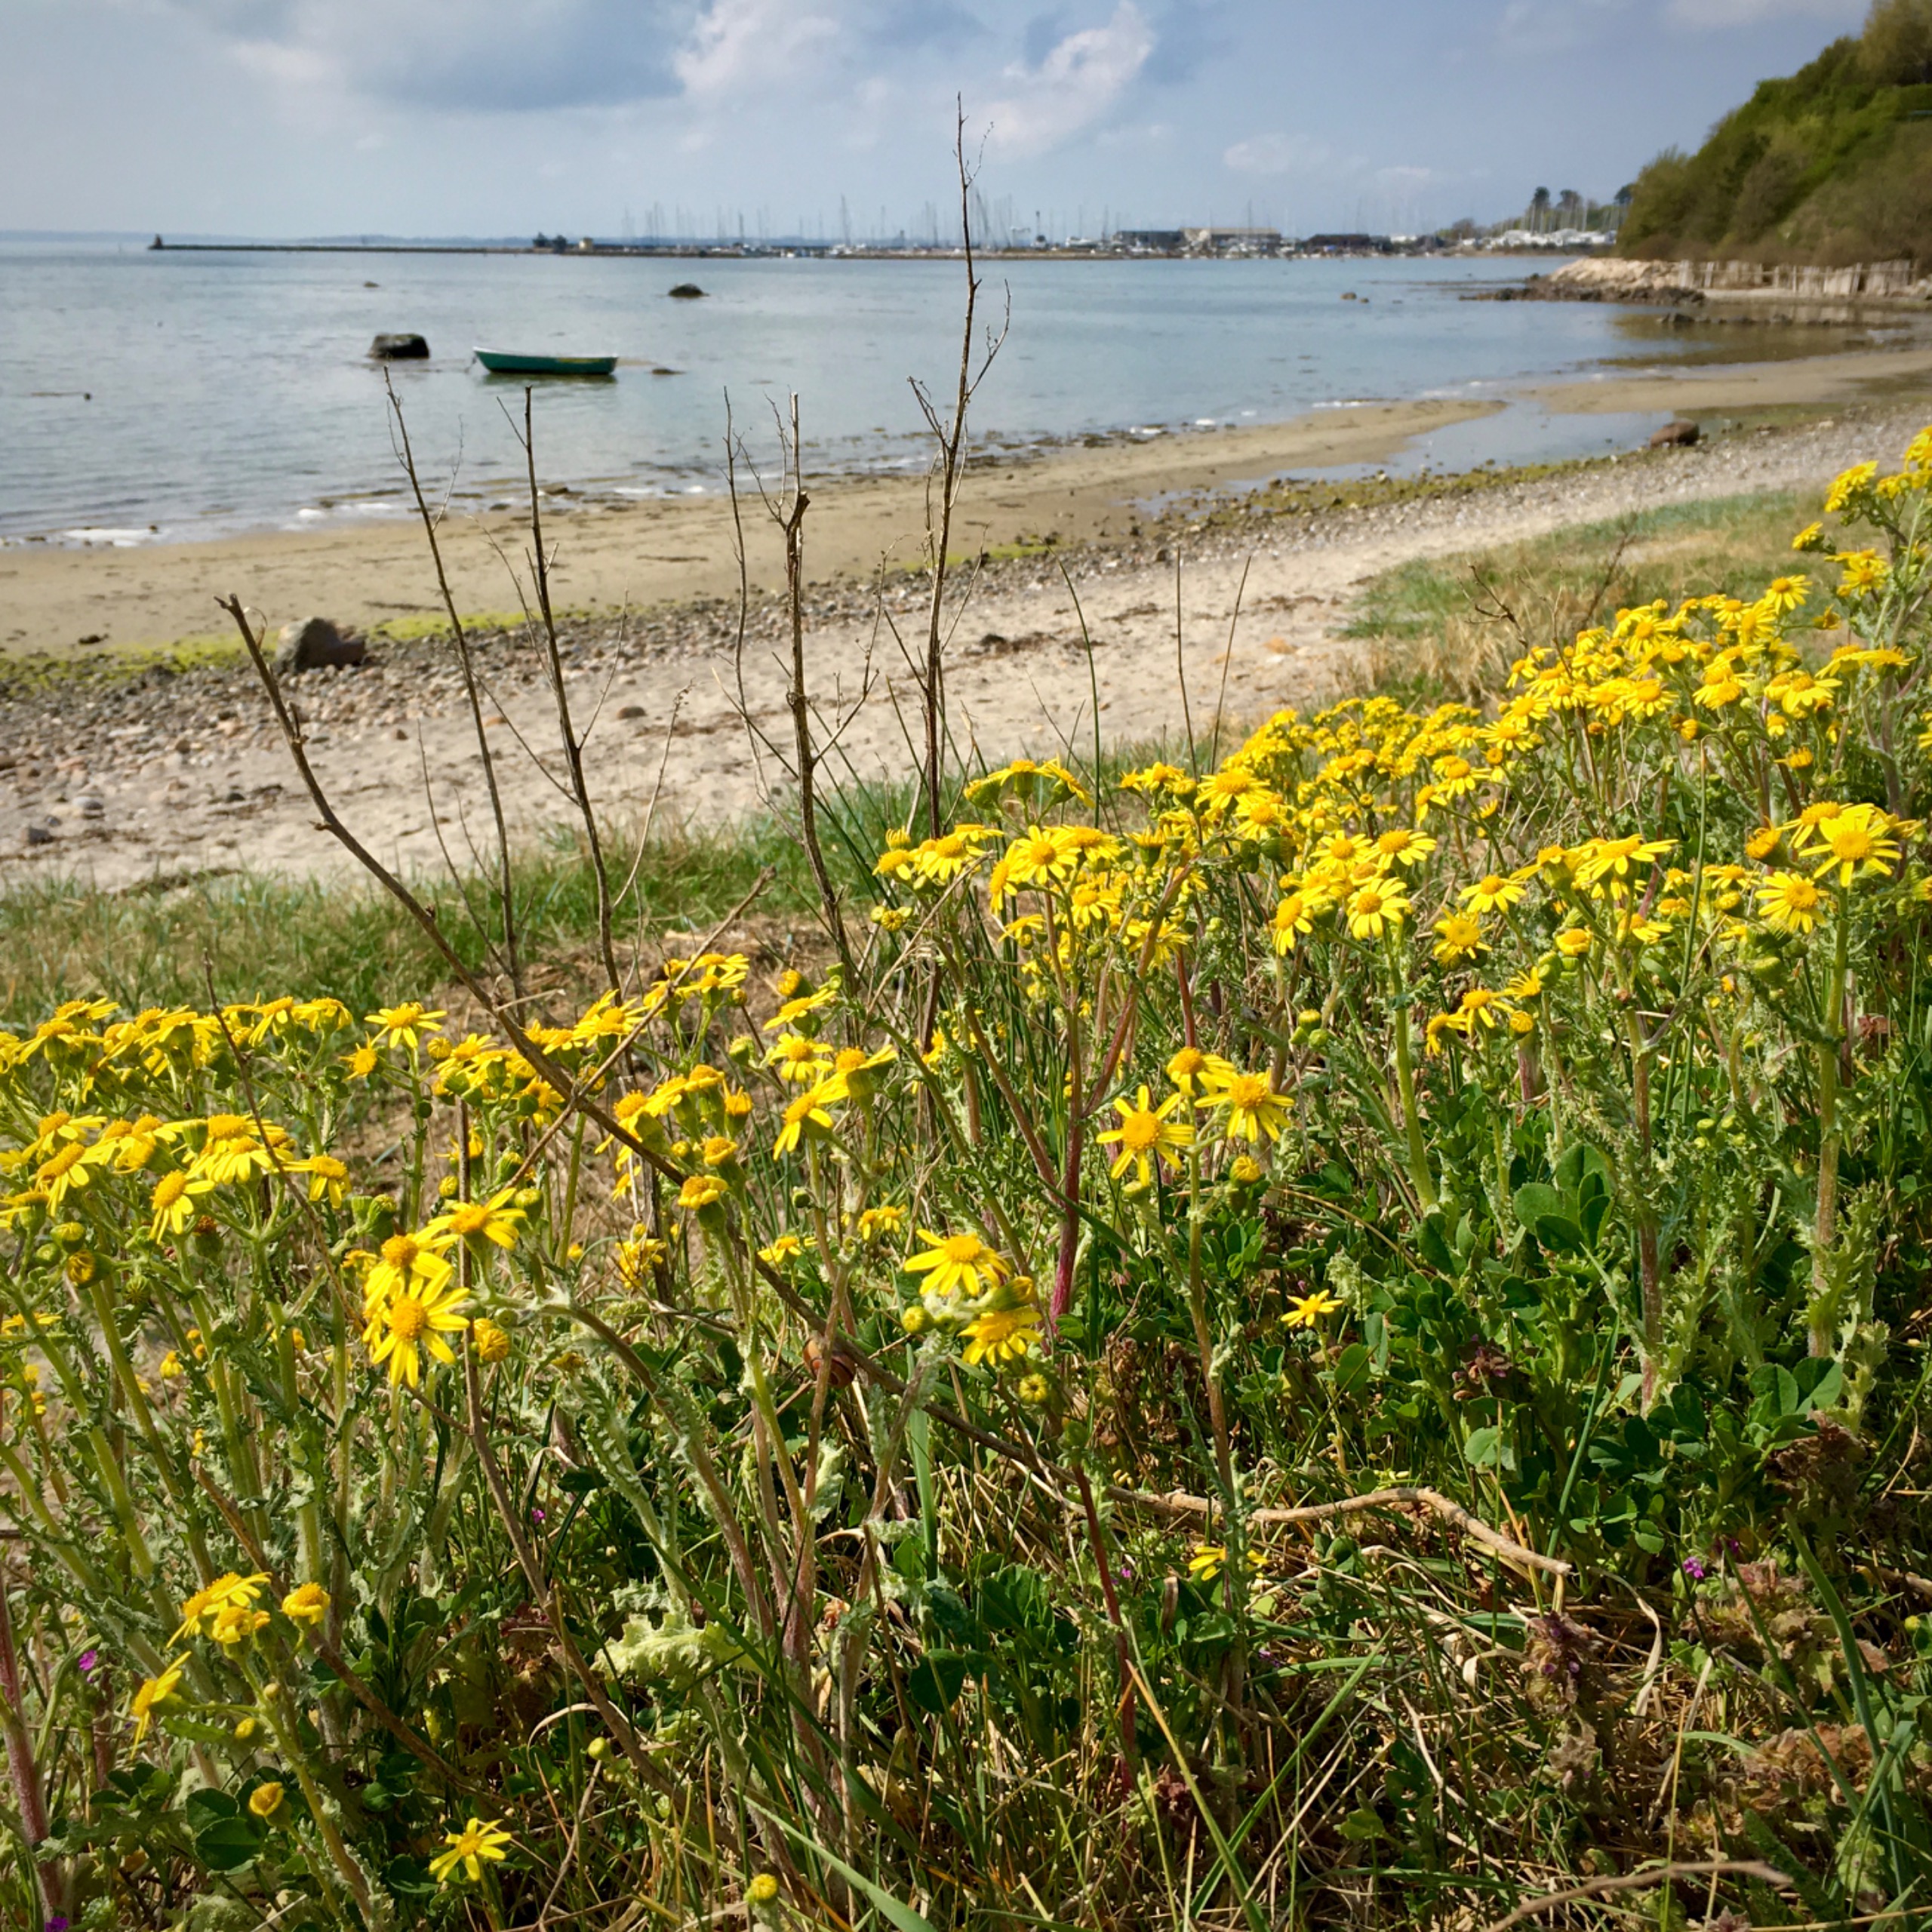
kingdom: Plantae
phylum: Tracheophyta
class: Magnoliopsida
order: Asterales
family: Asteraceae
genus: Senecio
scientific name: Senecio leucanthemifolius
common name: Vår-brandbæger
